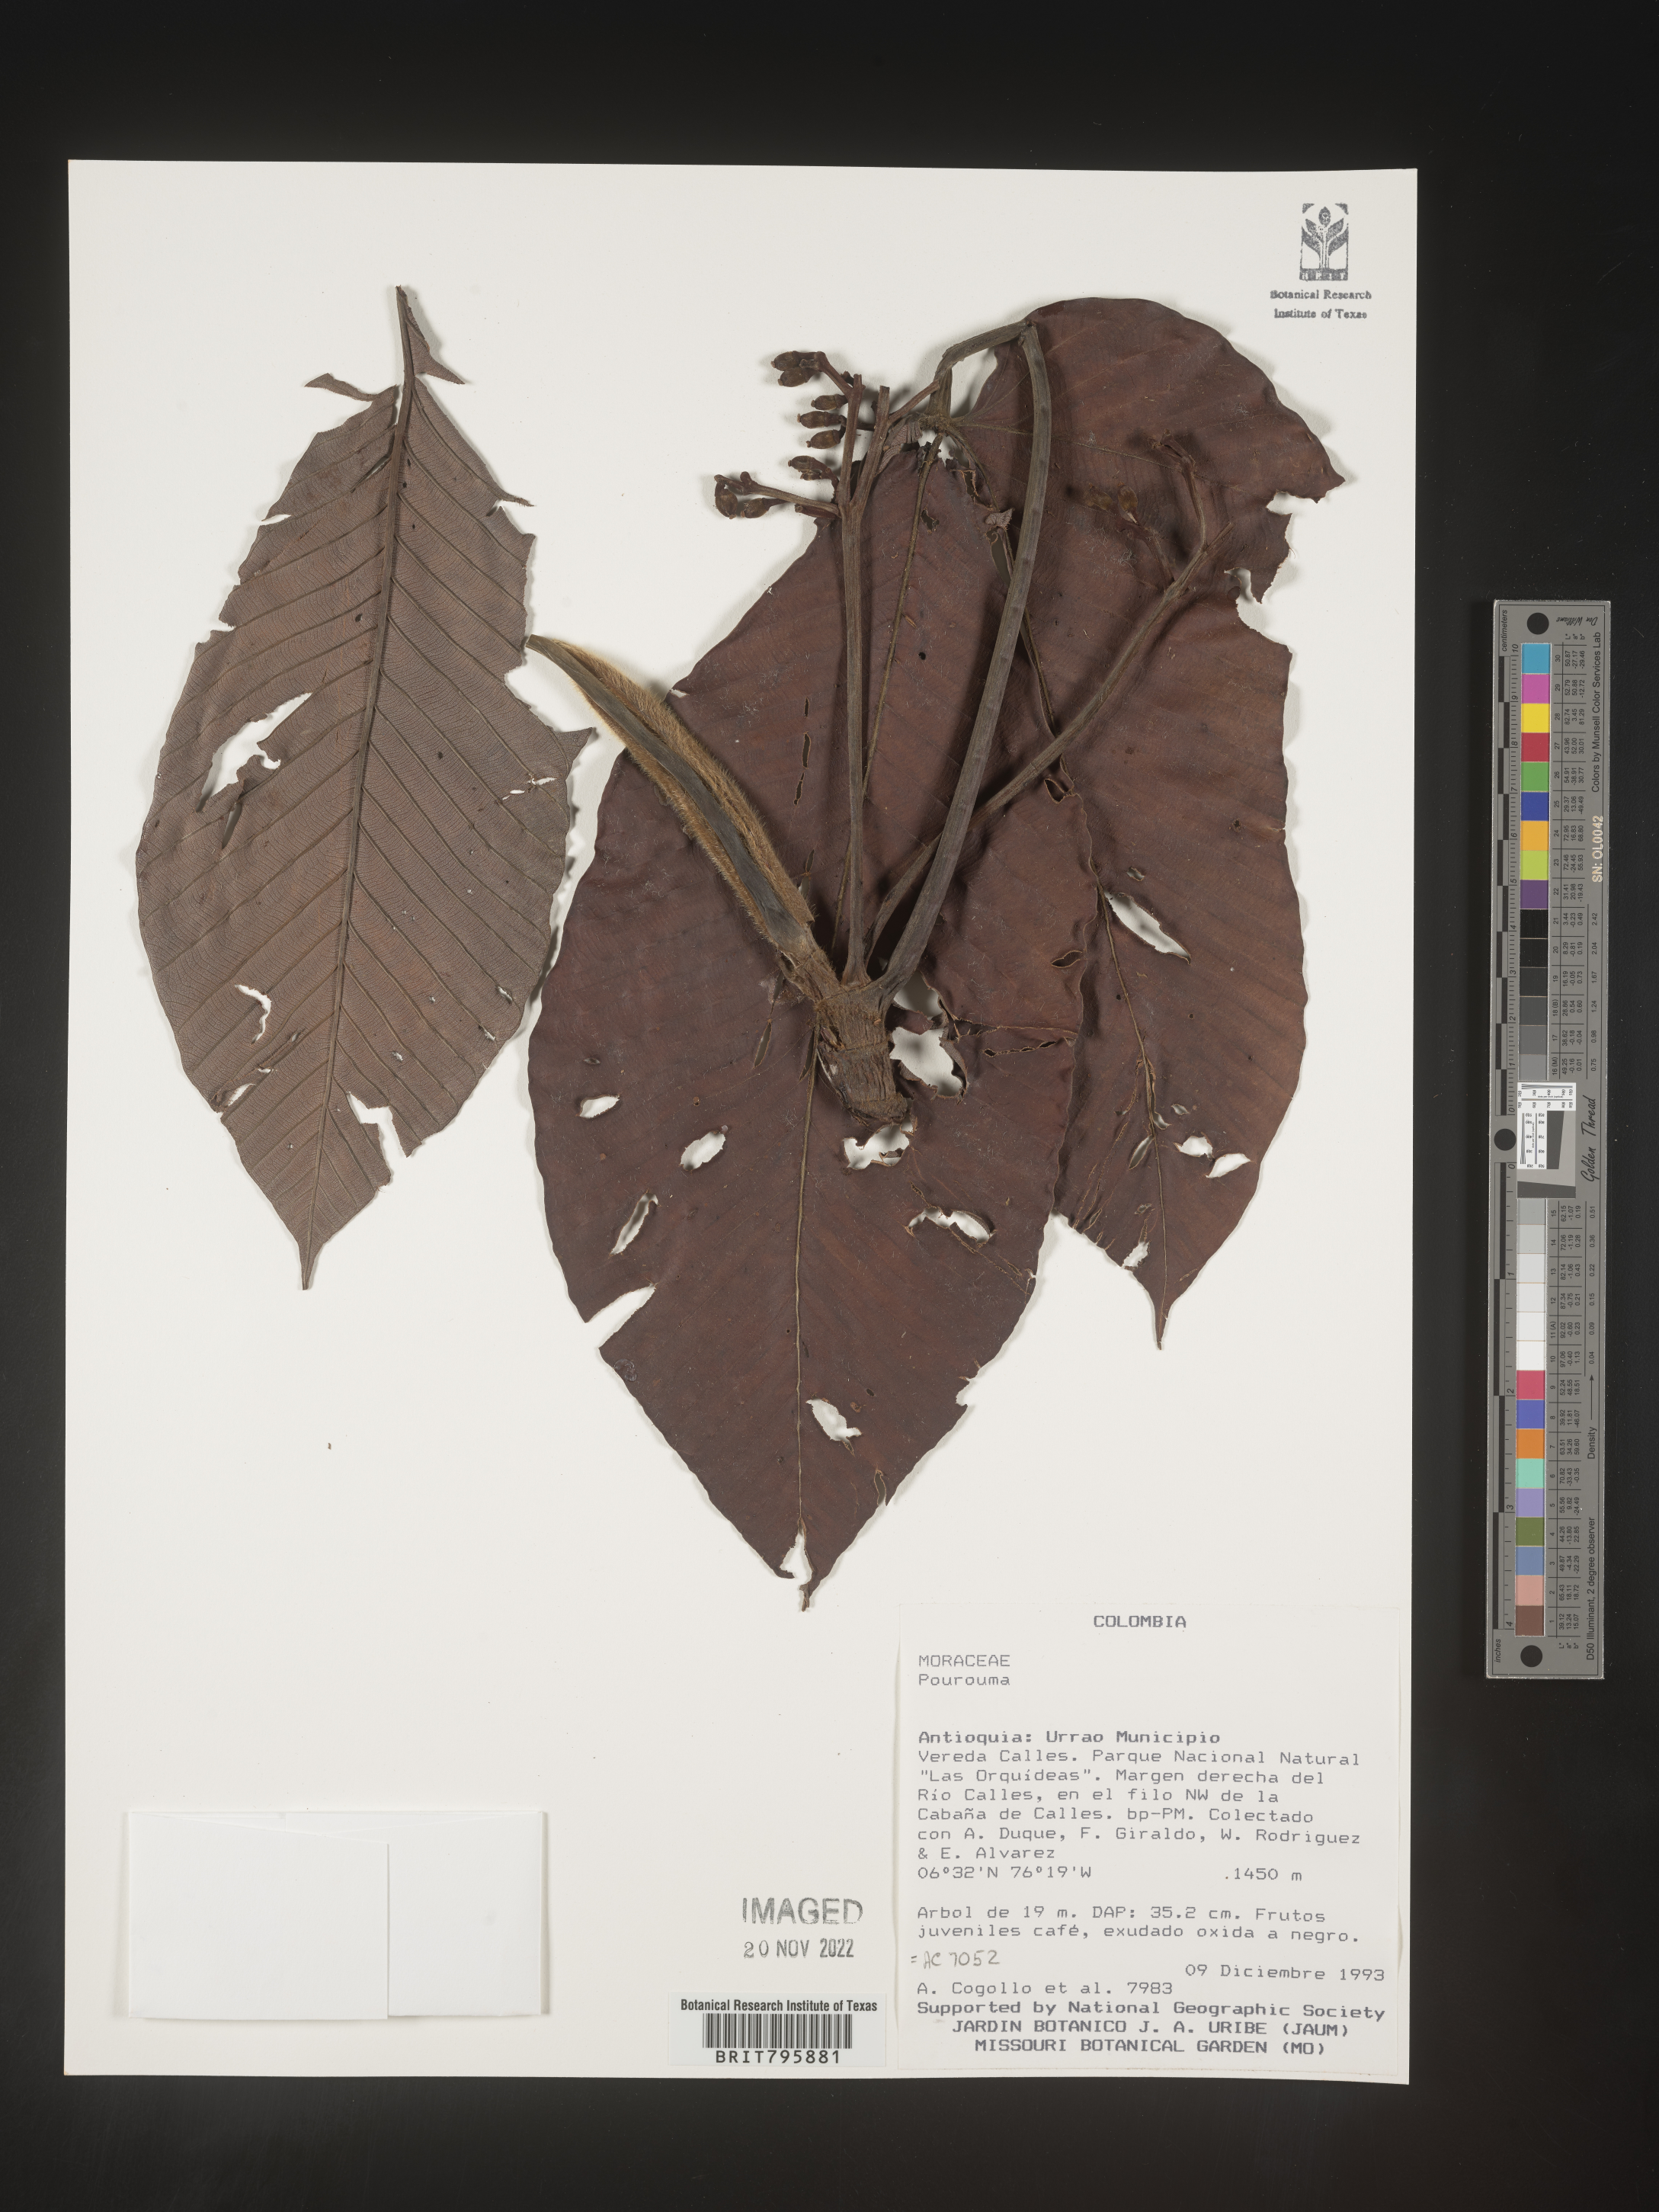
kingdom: Plantae
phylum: Tracheophyta
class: Magnoliopsida
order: Rosales
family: Urticaceae
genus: Pourouma
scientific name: Pourouma
